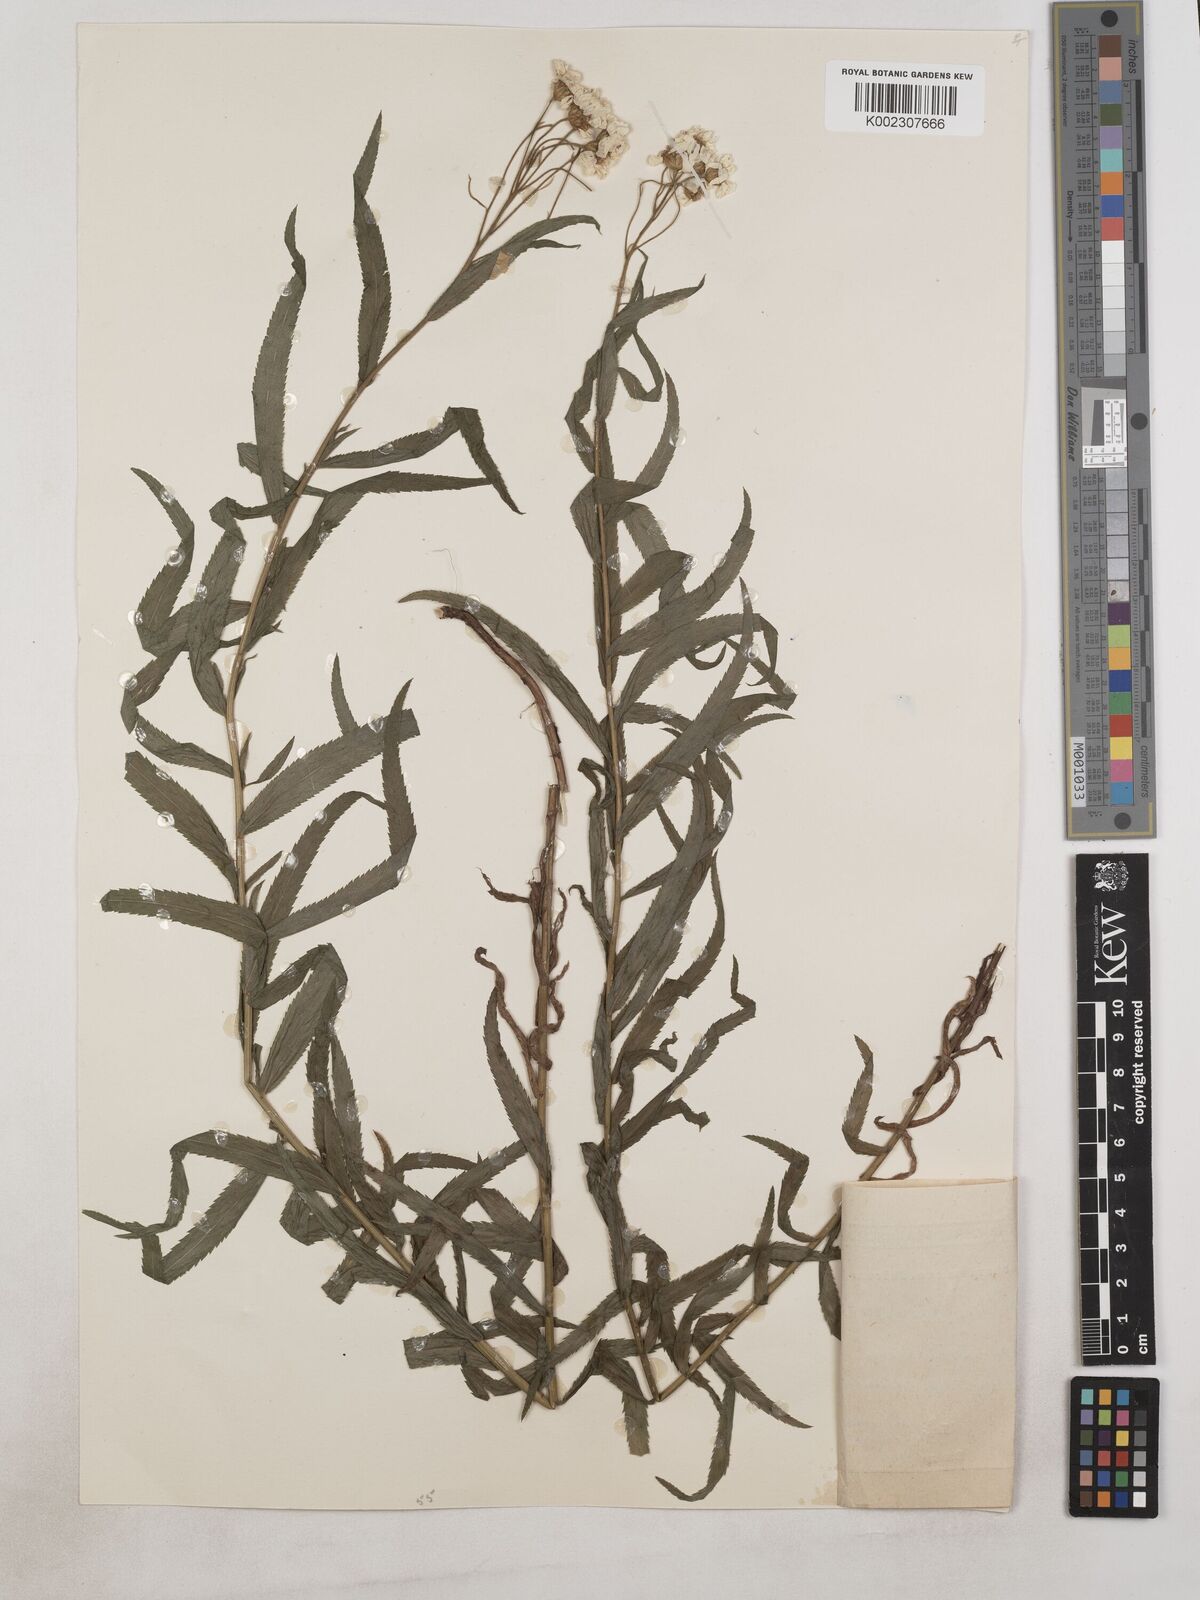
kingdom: Plantae
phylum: Tracheophyta
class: Magnoliopsida
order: Asterales
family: Asteraceae
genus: Achillea
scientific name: Achillea biserrata
